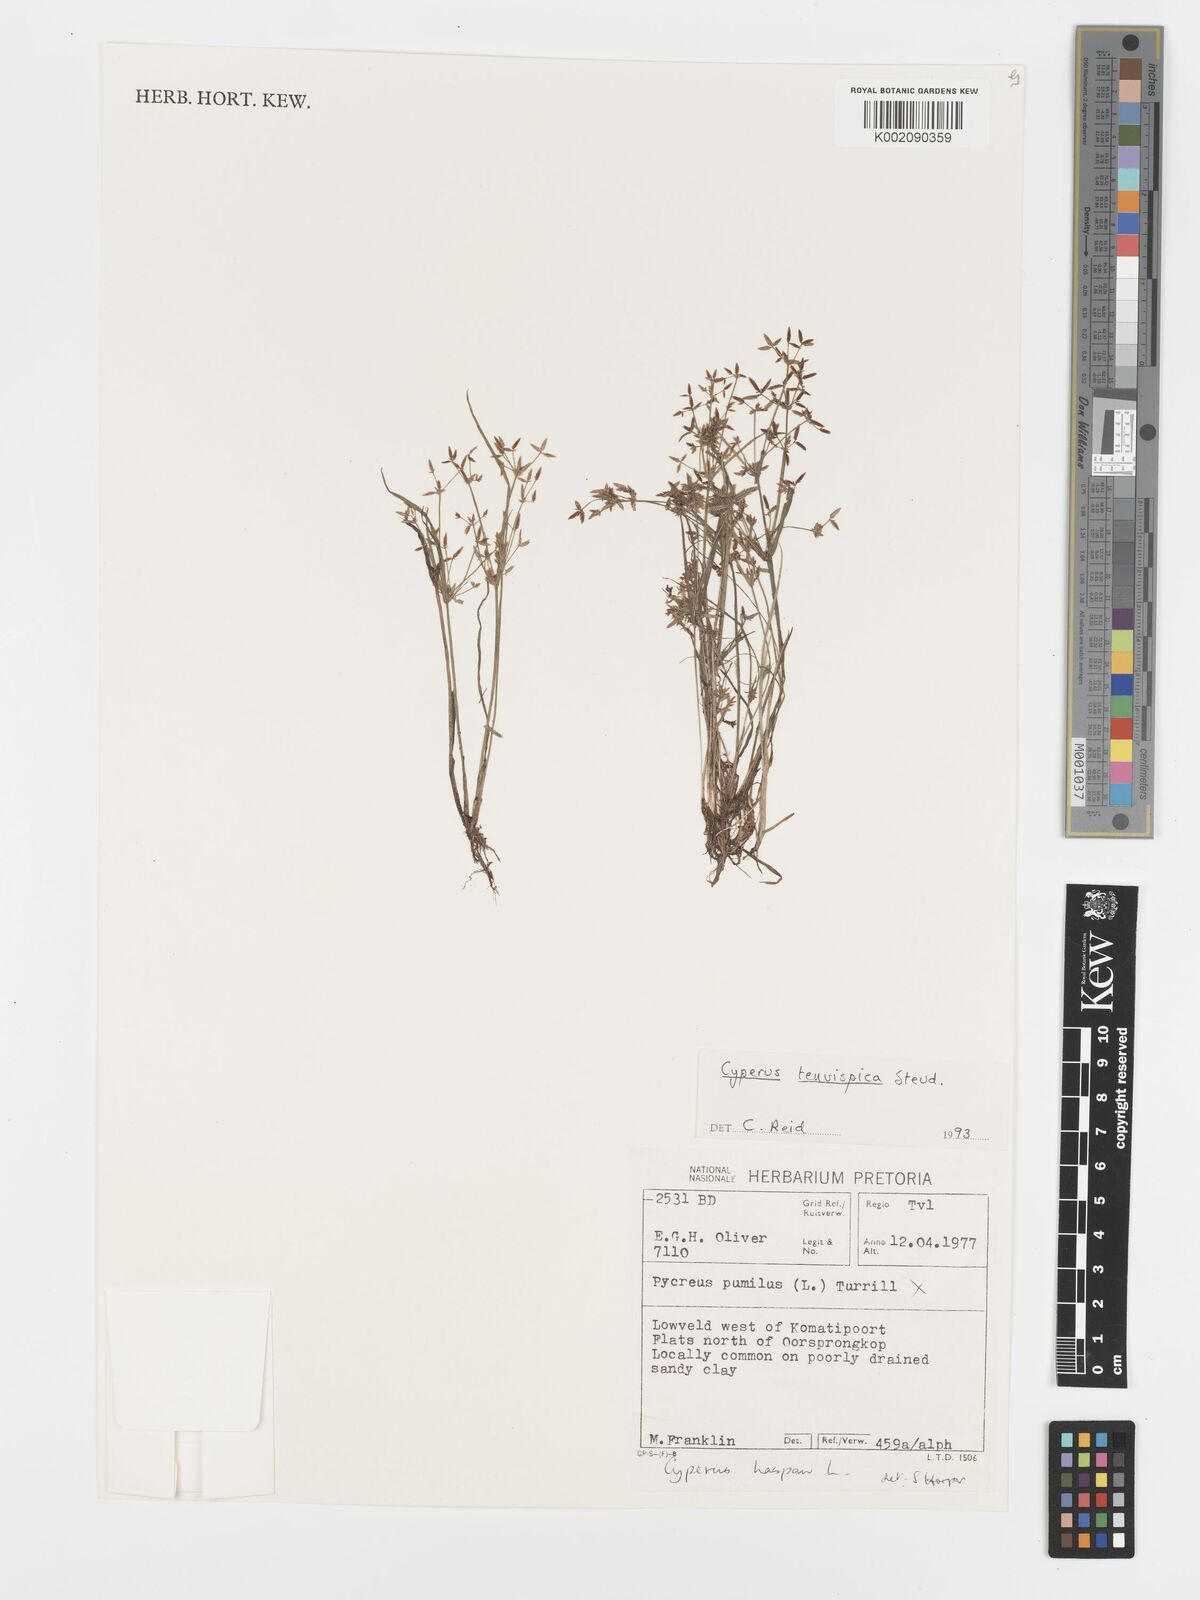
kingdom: Plantae
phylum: Tracheophyta
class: Liliopsida
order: Poales
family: Cyperaceae
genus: Cyperus
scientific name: Cyperus tenuispica
